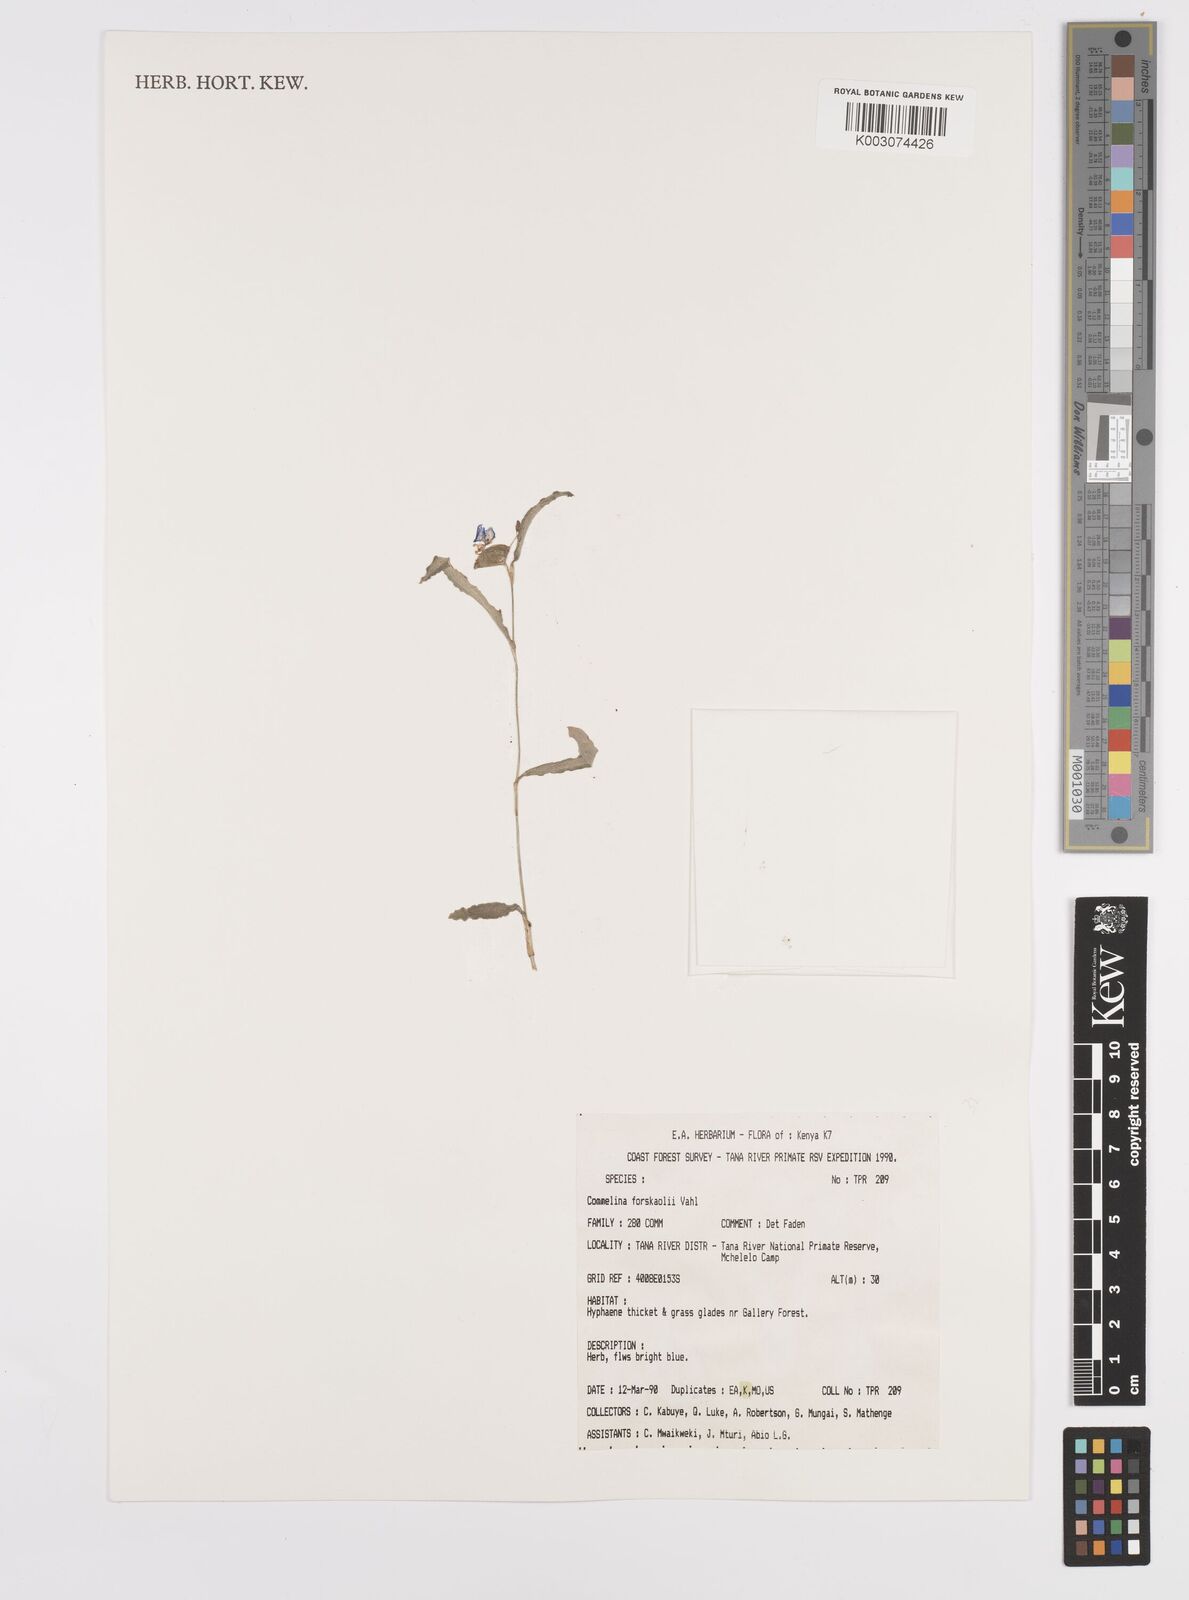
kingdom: Plantae
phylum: Tracheophyta
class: Liliopsida
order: Commelinales
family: Commelinaceae
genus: Commelina
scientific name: Commelina forskaolii
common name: Rat's ear
